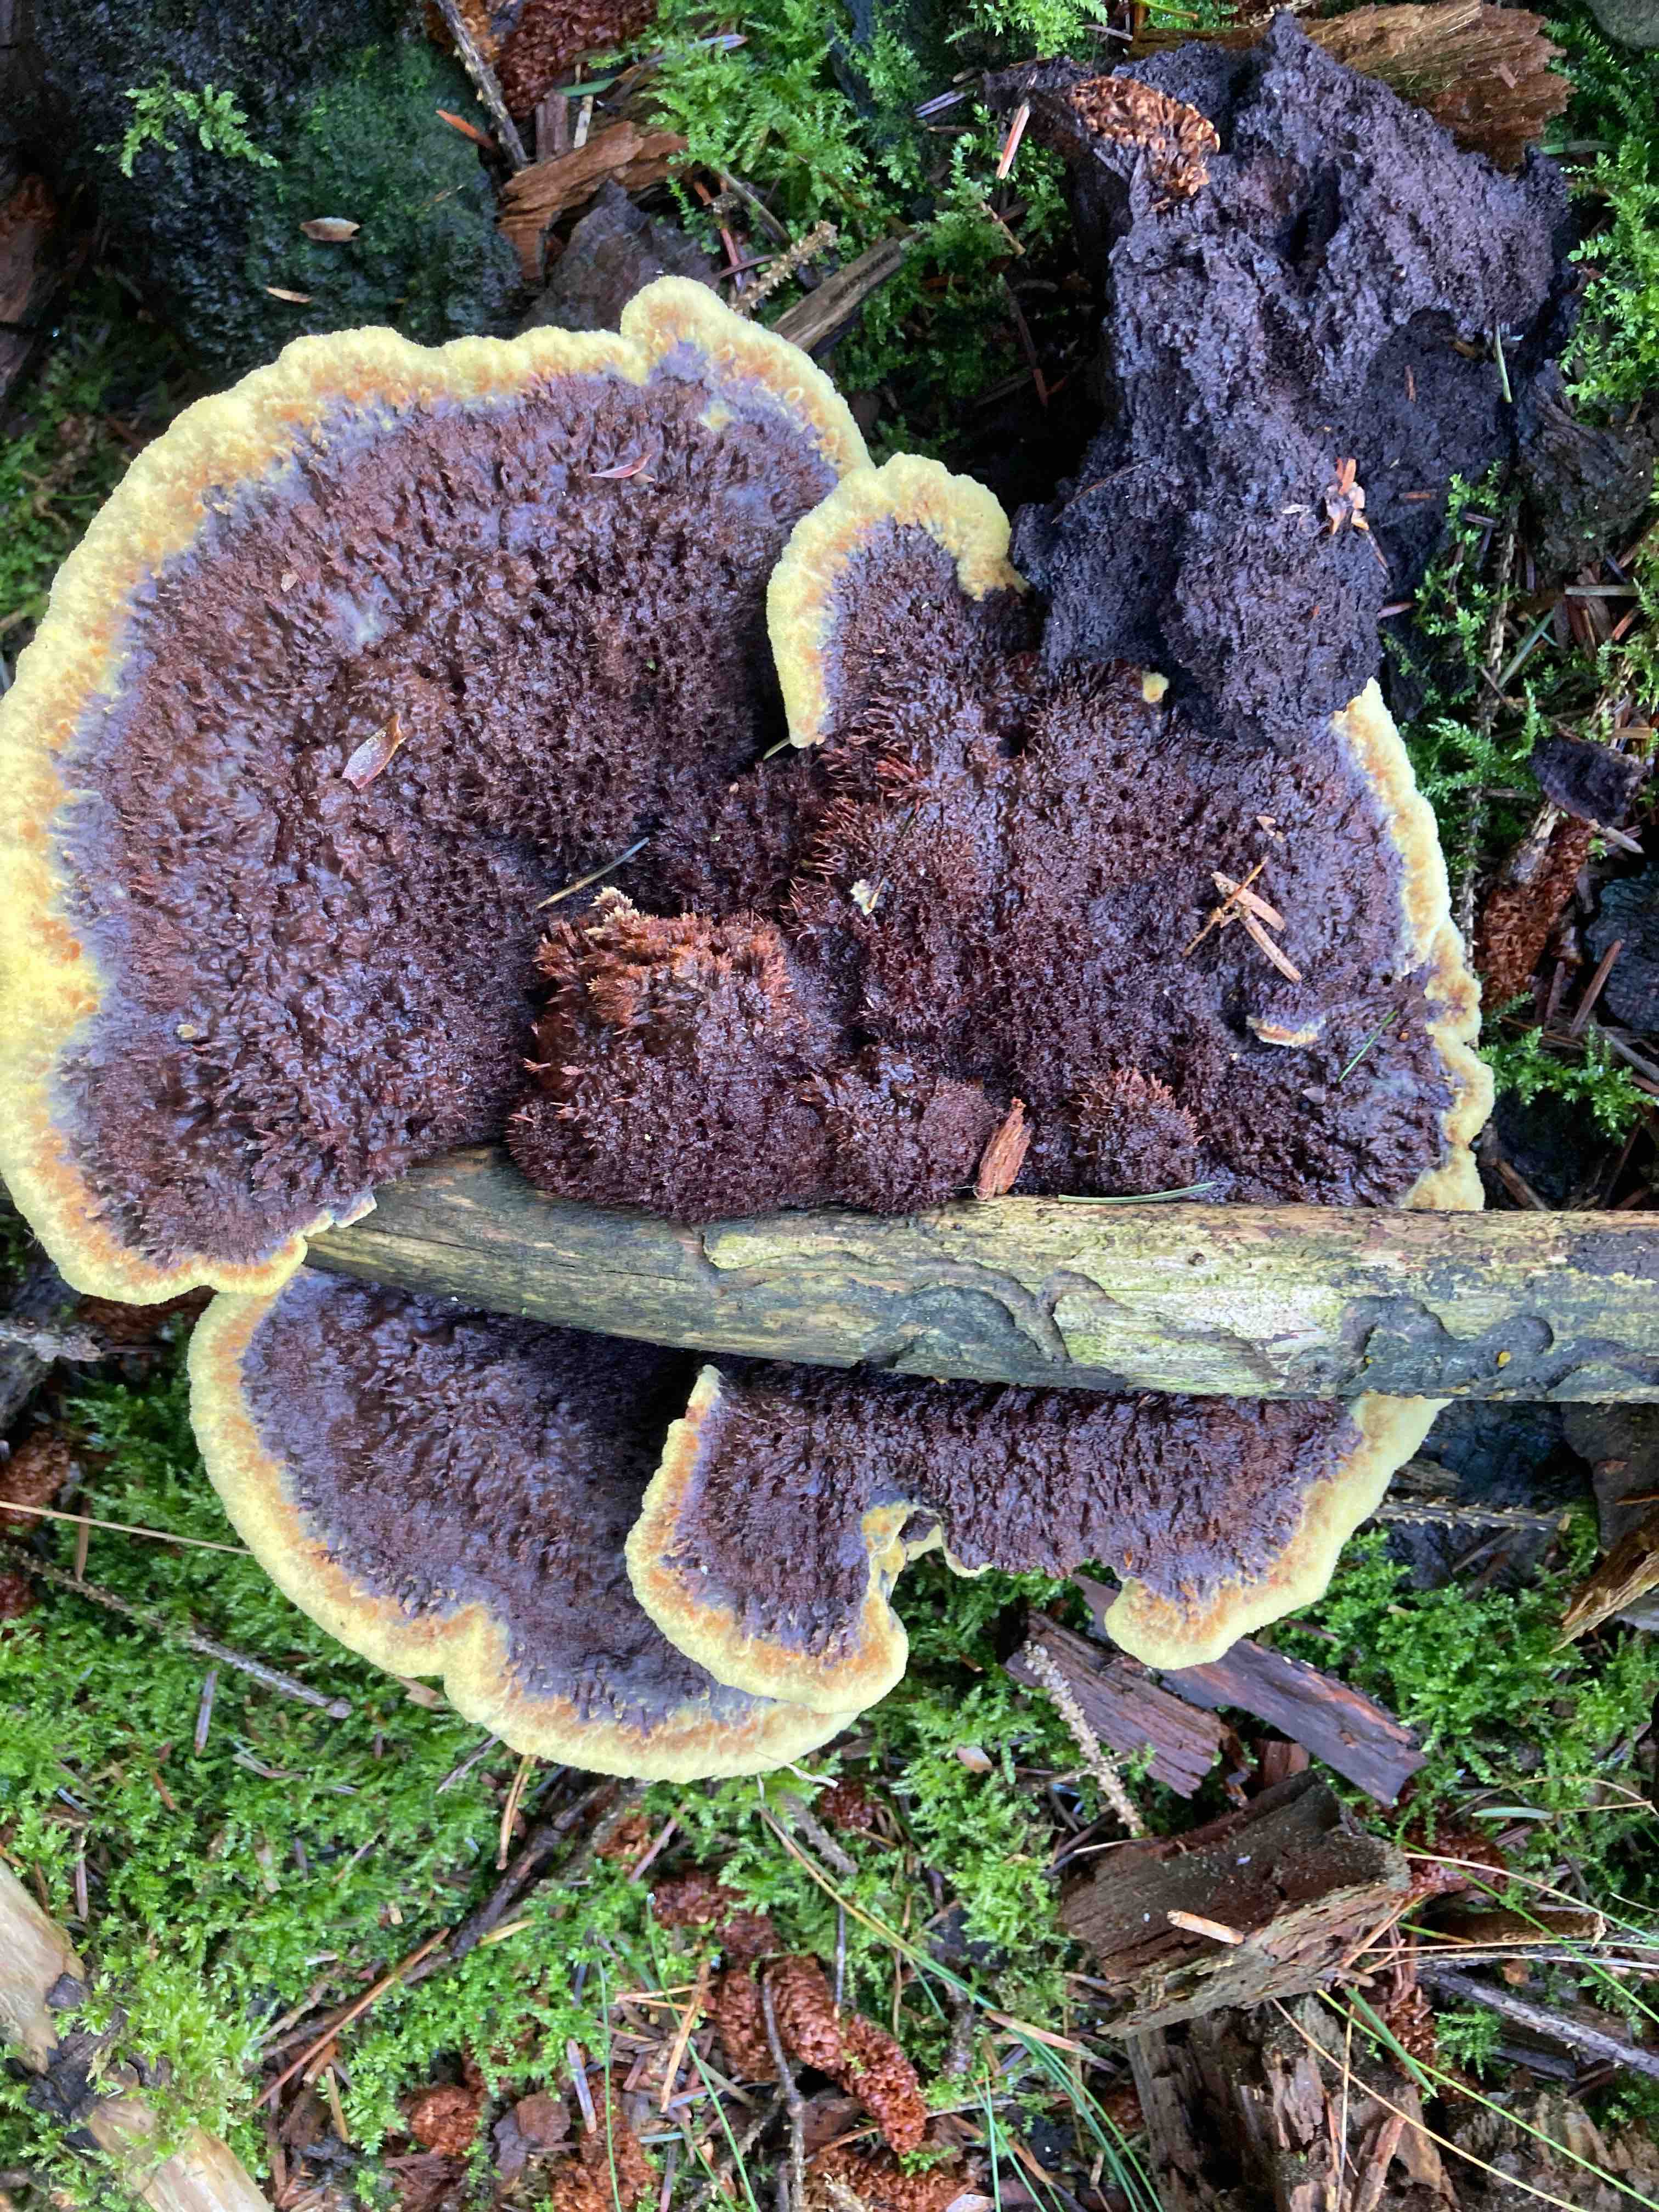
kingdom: Fungi
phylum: Basidiomycota
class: Agaricomycetes
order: Polyporales
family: Laetiporaceae
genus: Phaeolus
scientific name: Phaeolus schweinitzii
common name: brunporesvamp
